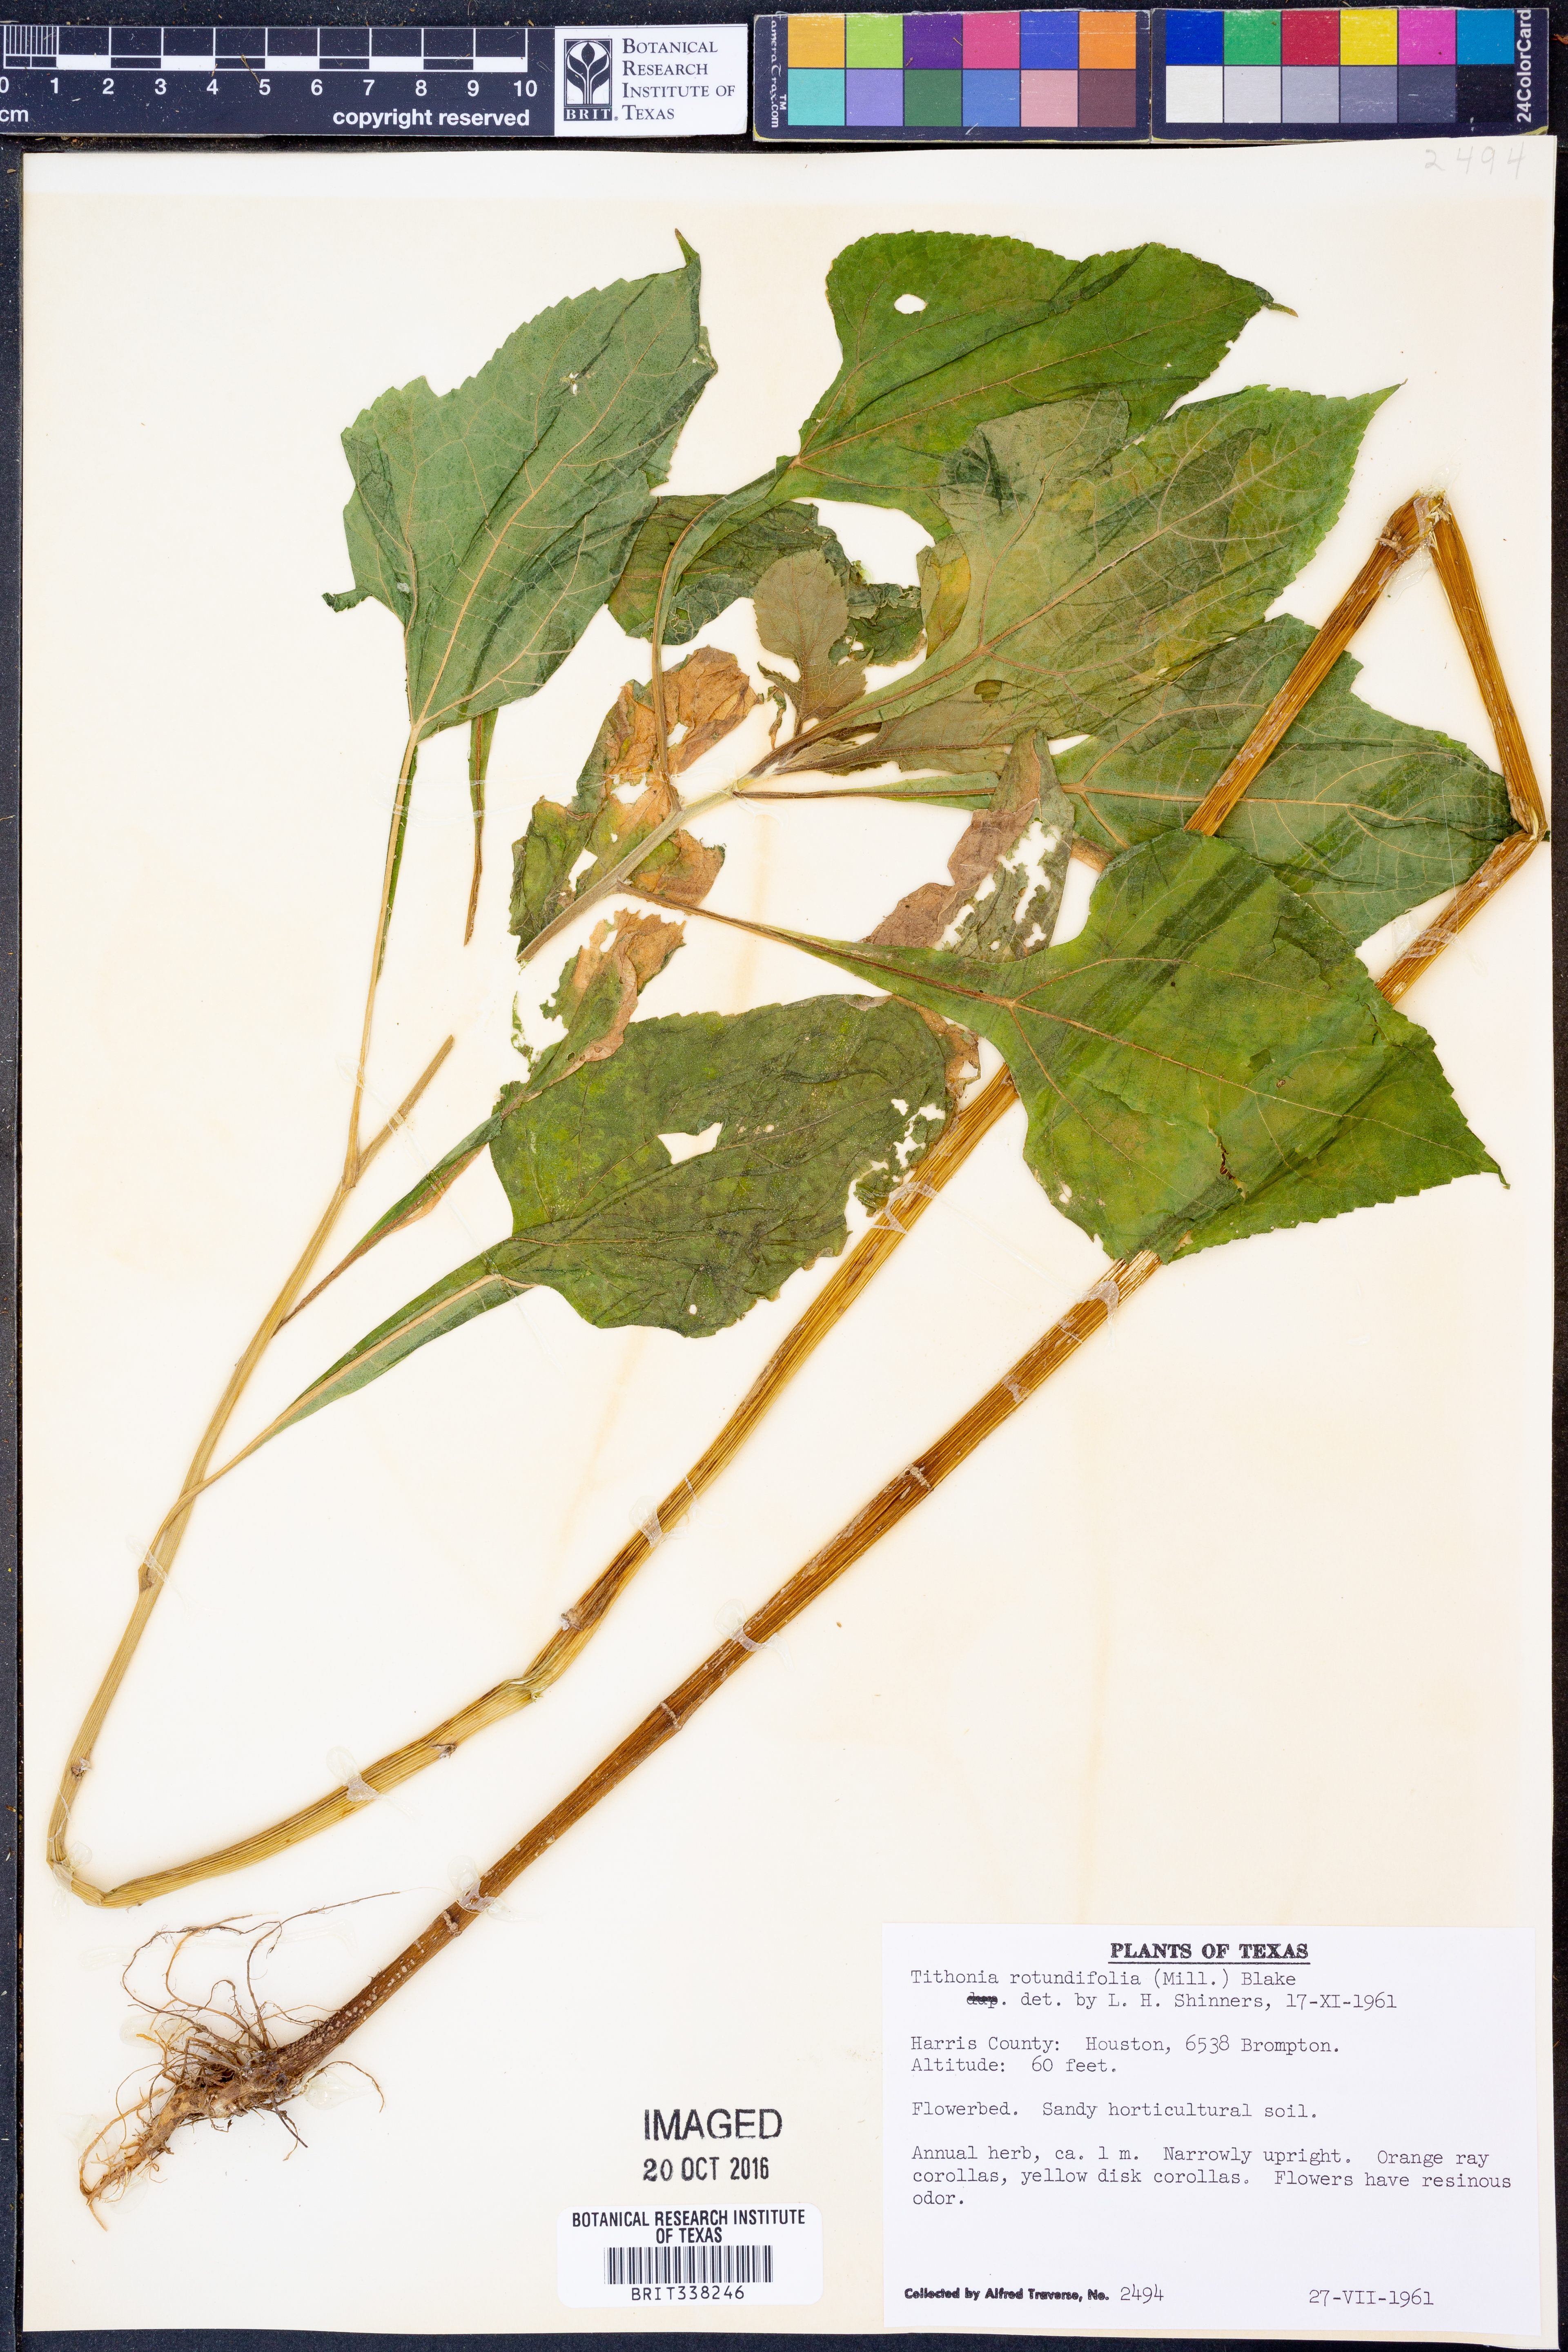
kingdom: Plantae
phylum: Tracheophyta
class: Magnoliopsida
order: Asterales
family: Asteraceae
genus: Tithonia
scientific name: Tithonia rotundifolia
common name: Sunflower
